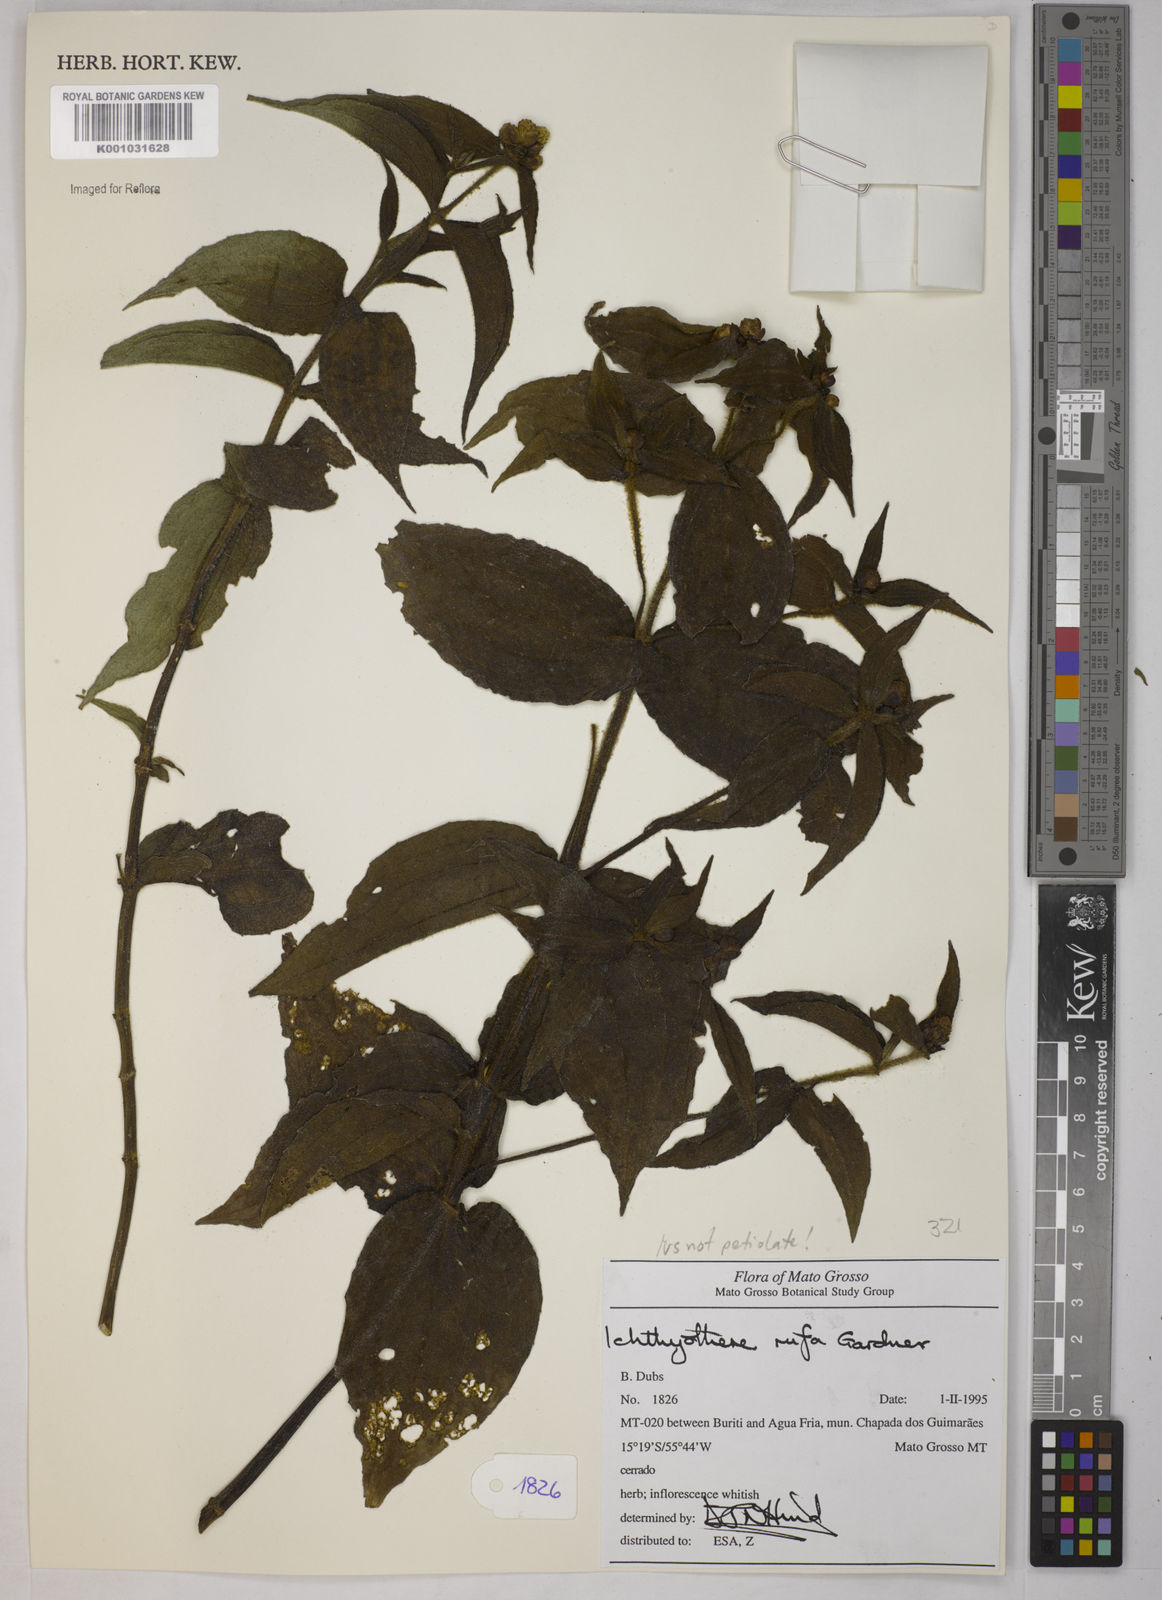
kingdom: Plantae
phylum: Tracheophyta
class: Magnoliopsida
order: Asterales
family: Asteraceae
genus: Ichthyothere
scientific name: Ichthyothere rufa
